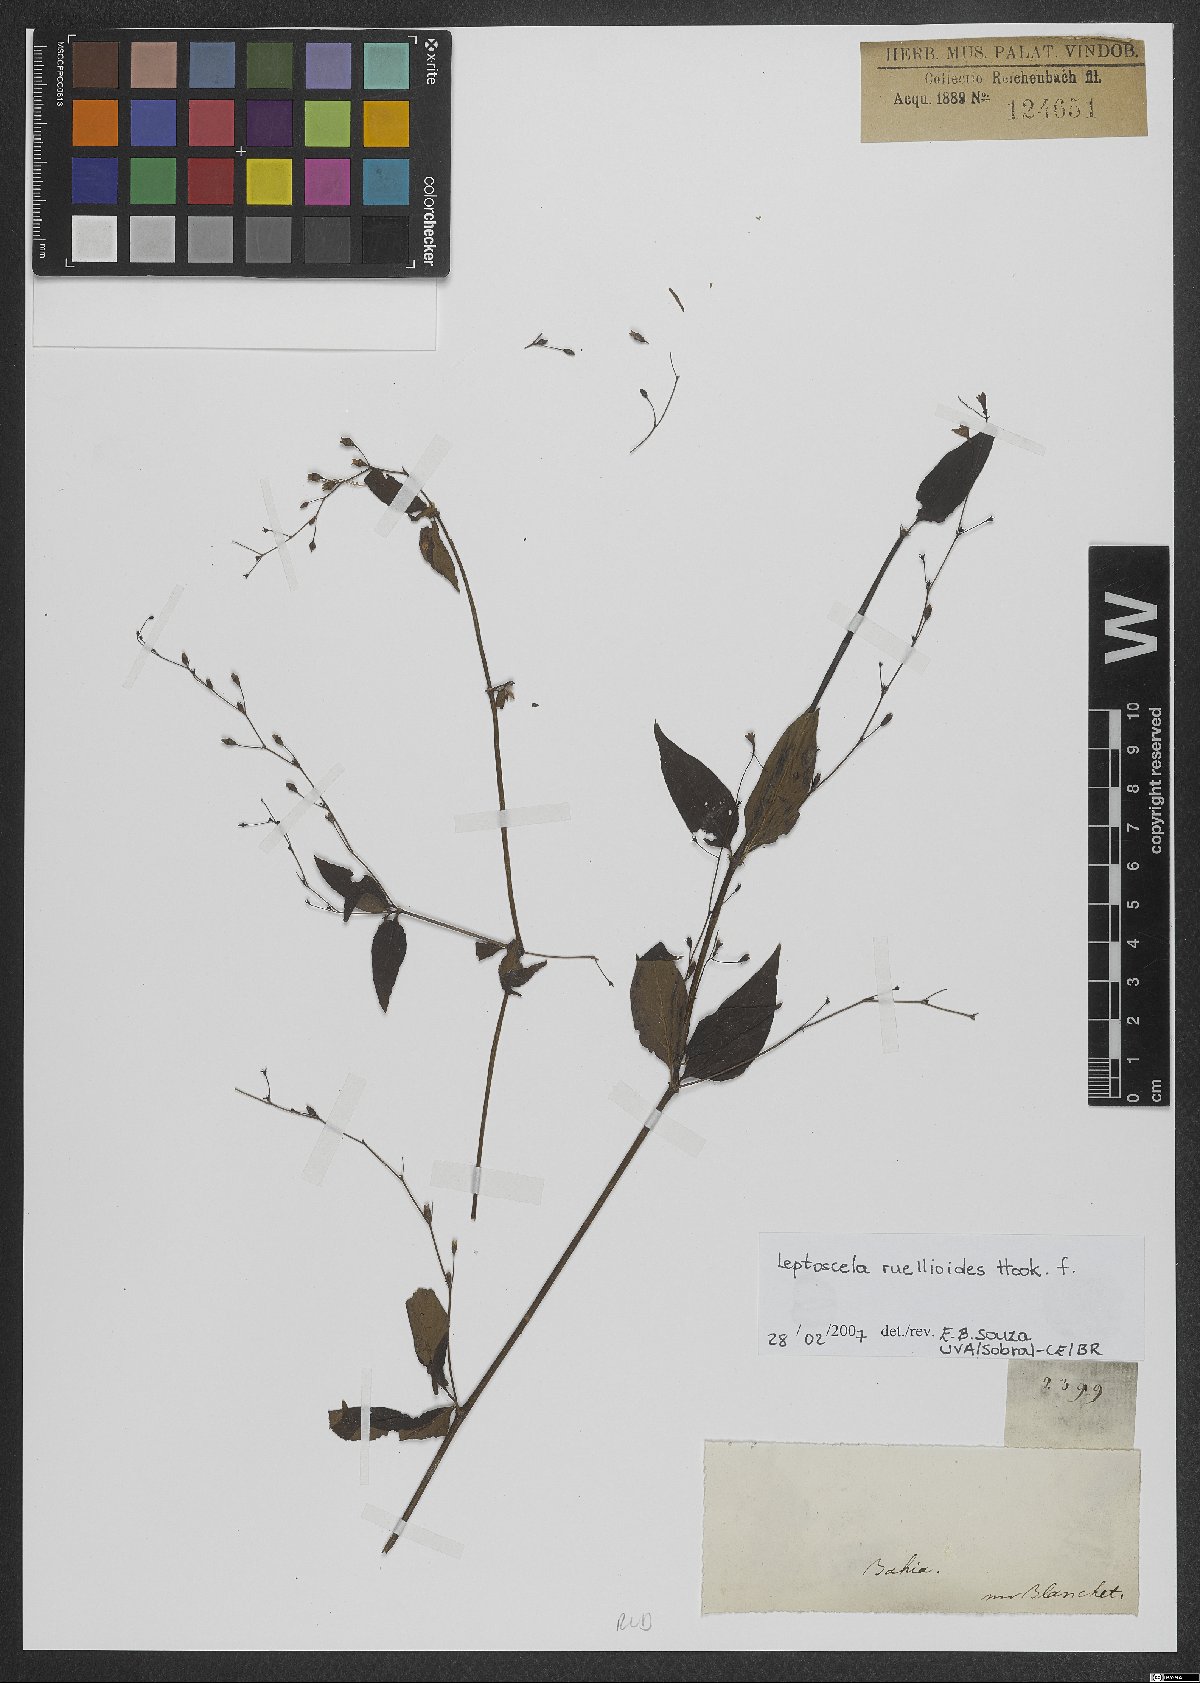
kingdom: Plantae
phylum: Tracheophyta
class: Magnoliopsida
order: Gentianales
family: Rubiaceae
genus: Leptoscela
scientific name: Leptoscela ruellioides
